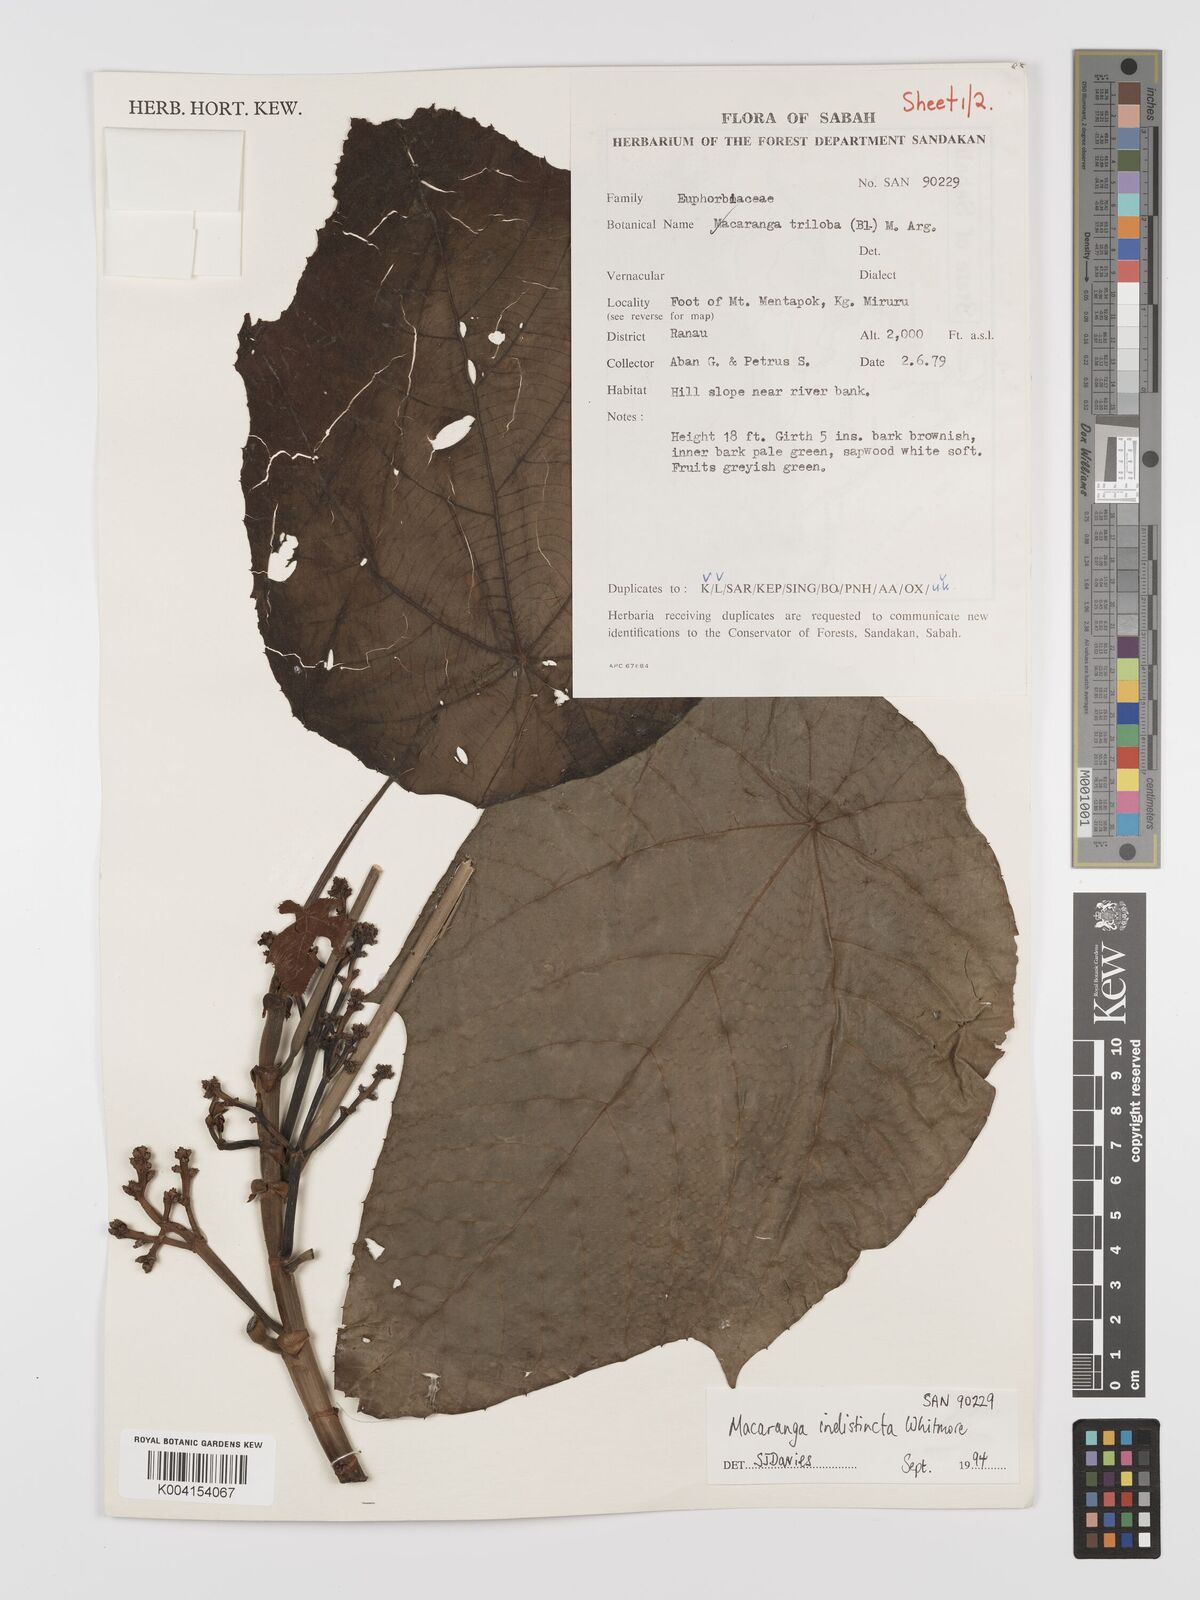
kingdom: Plantae
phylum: Tracheophyta
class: Magnoliopsida
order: Malpighiales
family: Euphorbiaceae
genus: Macaranga
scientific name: Macaranga indistincta
